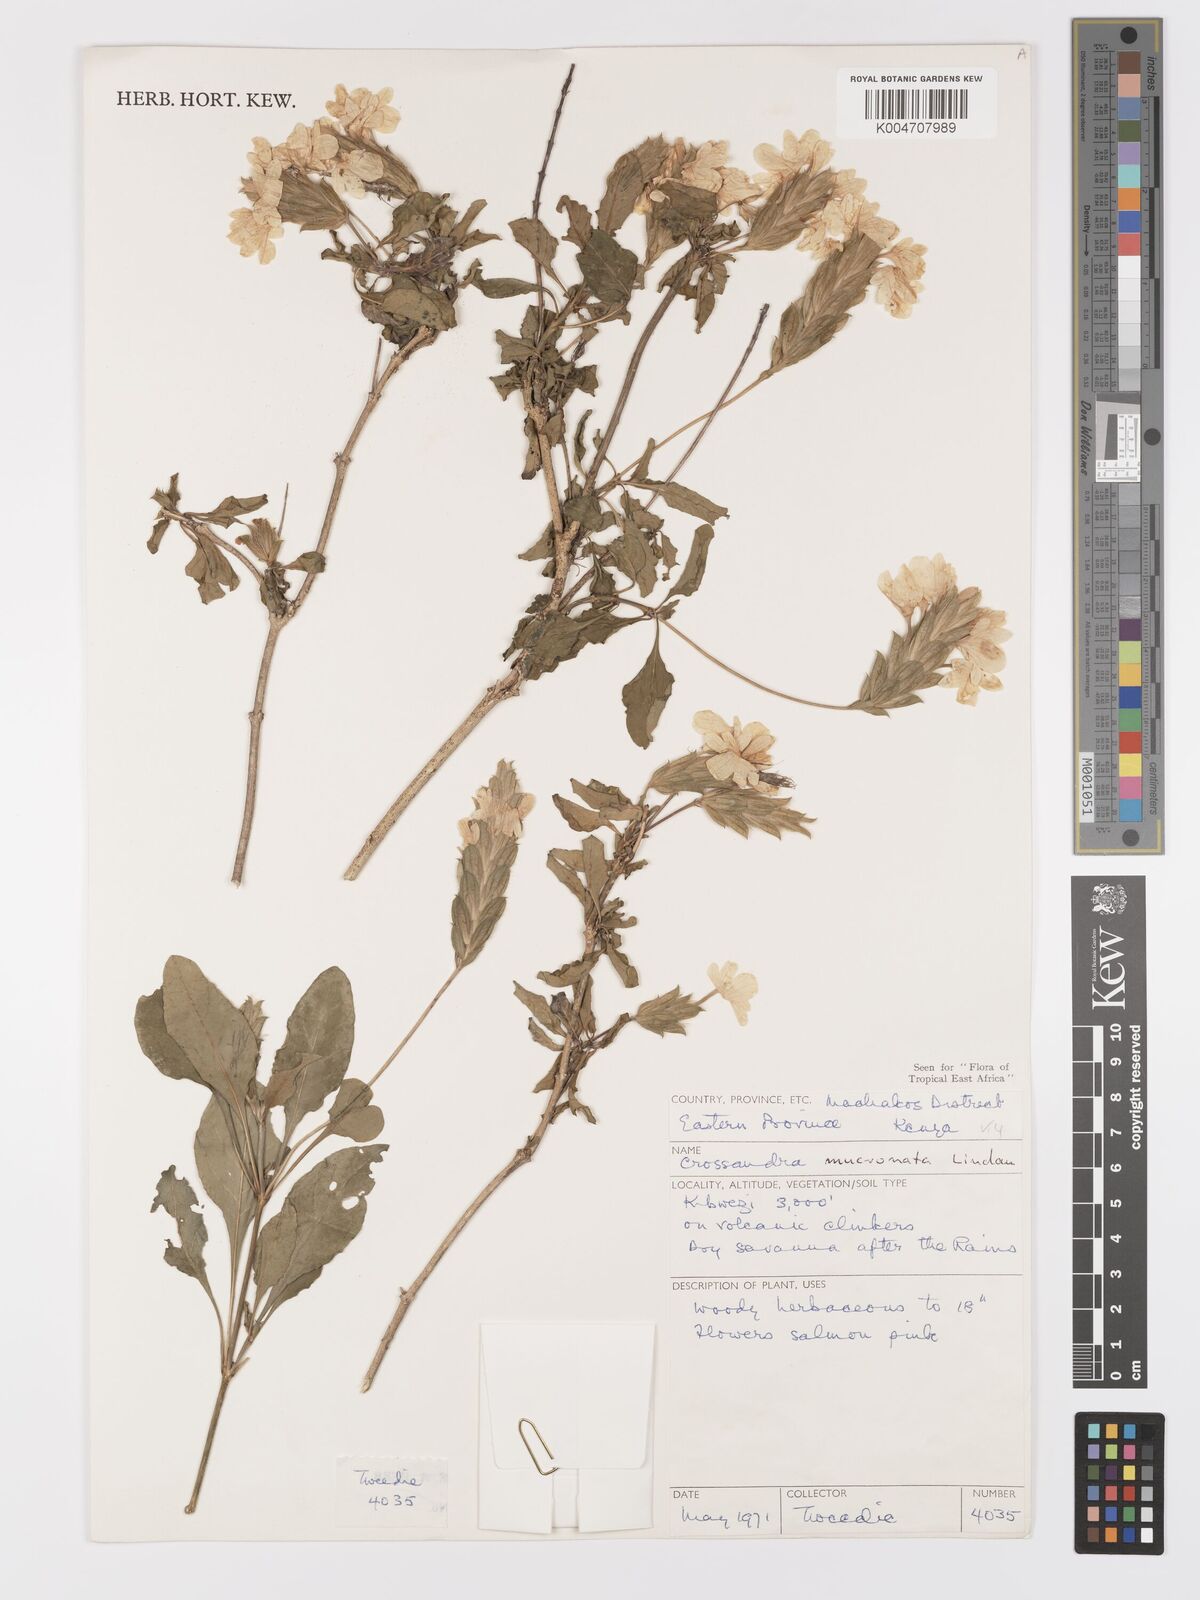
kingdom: Plantae
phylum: Tracheophyta
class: Magnoliopsida
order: Lamiales
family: Acanthaceae
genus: Crossandra
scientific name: Crossandra mucronata
